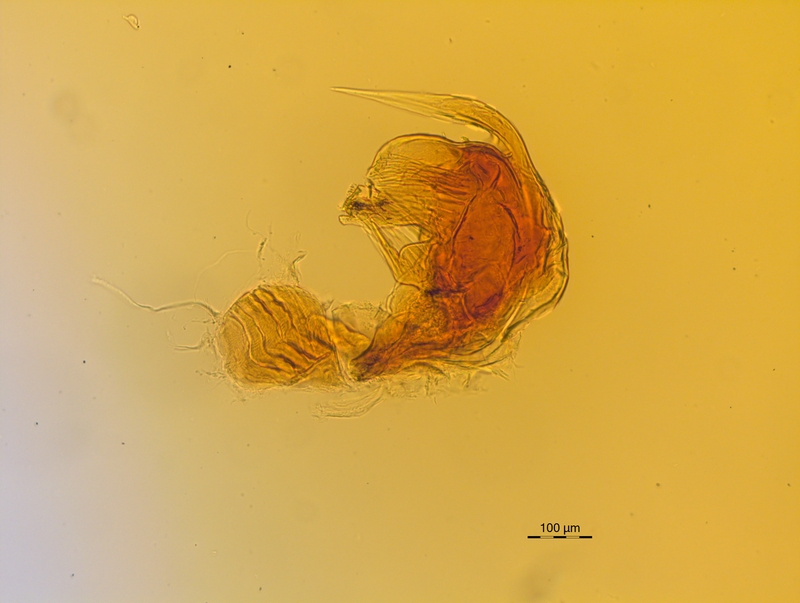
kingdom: Animalia
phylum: Arthropoda
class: Diplopoda
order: Chordeumatida
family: Craspedosomatidae
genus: Craspedosoma
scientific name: Craspedosoma rawlinsii
